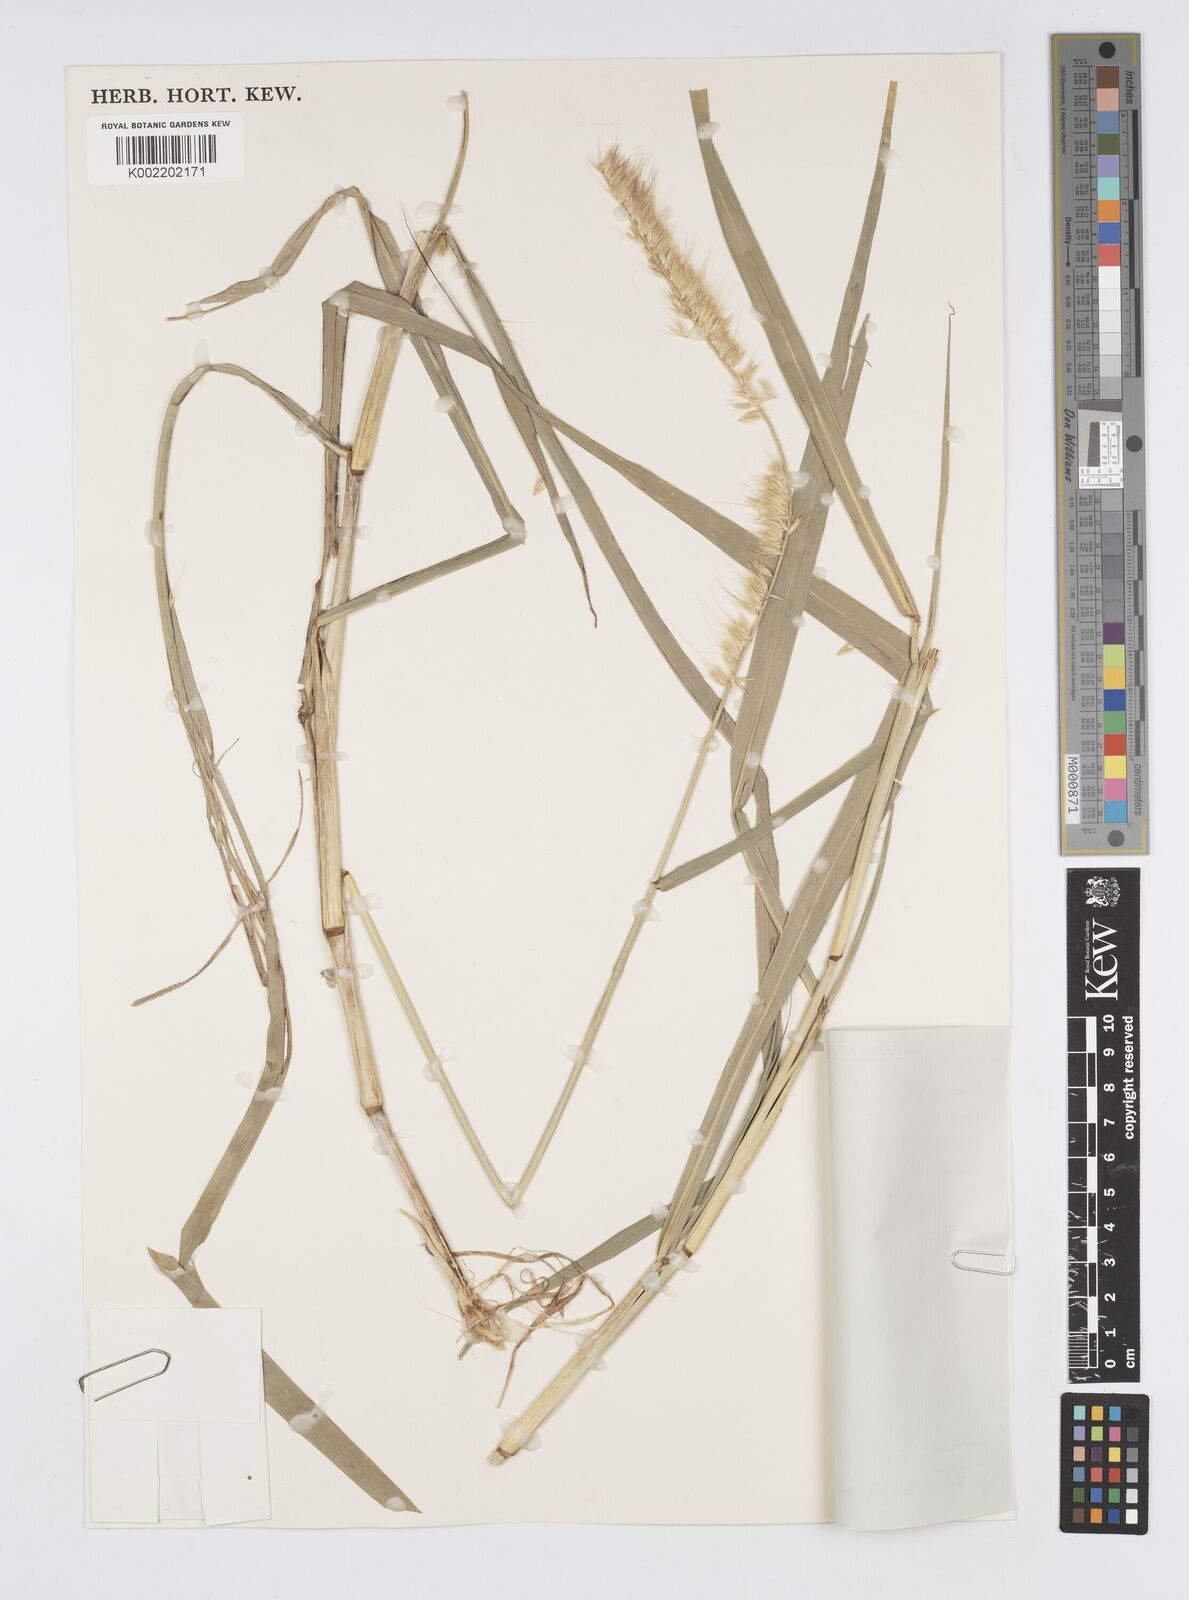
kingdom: Plantae
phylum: Tracheophyta
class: Liliopsida
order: Poales
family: Poaceae
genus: Cenchrus
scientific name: Cenchrus purpureus
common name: Elephant grass
